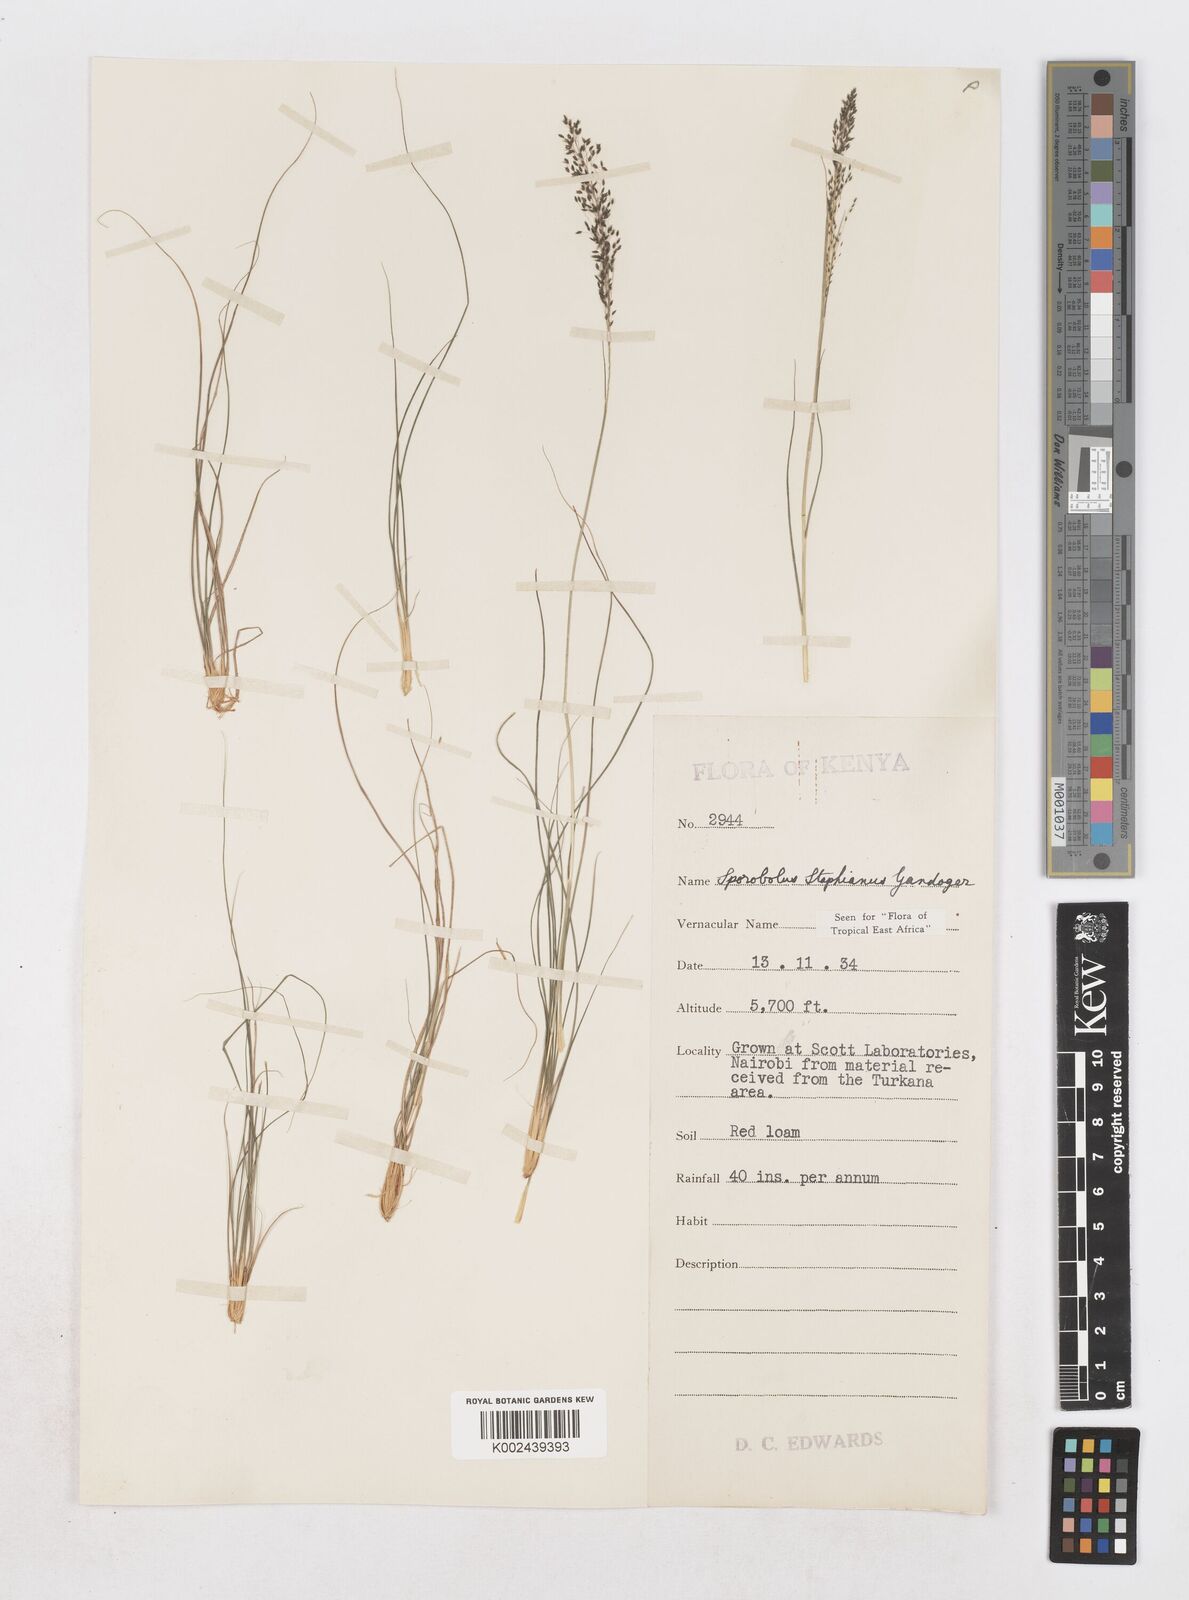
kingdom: Plantae
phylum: Tracheophyta
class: Liliopsida
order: Poales
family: Poaceae
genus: Sporobolus
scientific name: Sporobolus stapfianus
